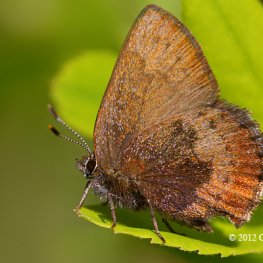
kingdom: Animalia
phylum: Arthropoda
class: Insecta
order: Lepidoptera
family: Lycaenidae
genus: Incisalia
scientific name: Incisalia irioides
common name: Brown Elfin
